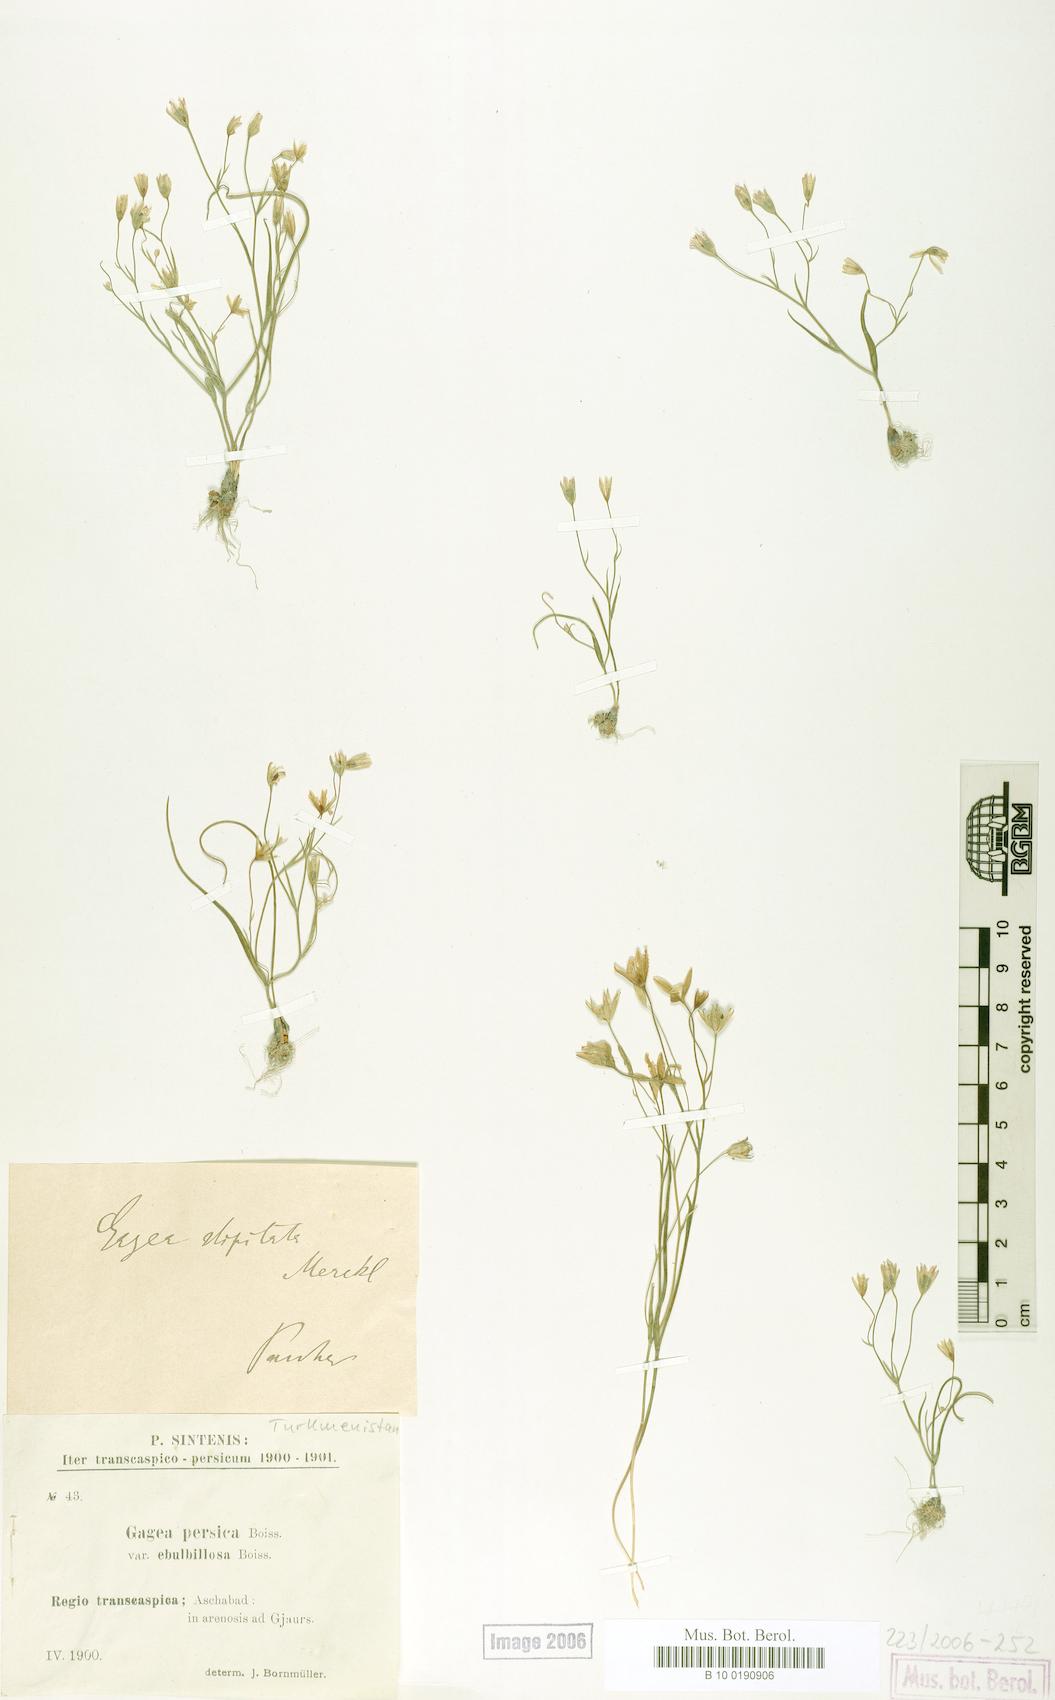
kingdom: Plantae
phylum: Tracheophyta
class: Liliopsida
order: Liliales
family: Liliaceae
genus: Gagea
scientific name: Gagea kunawurensis
